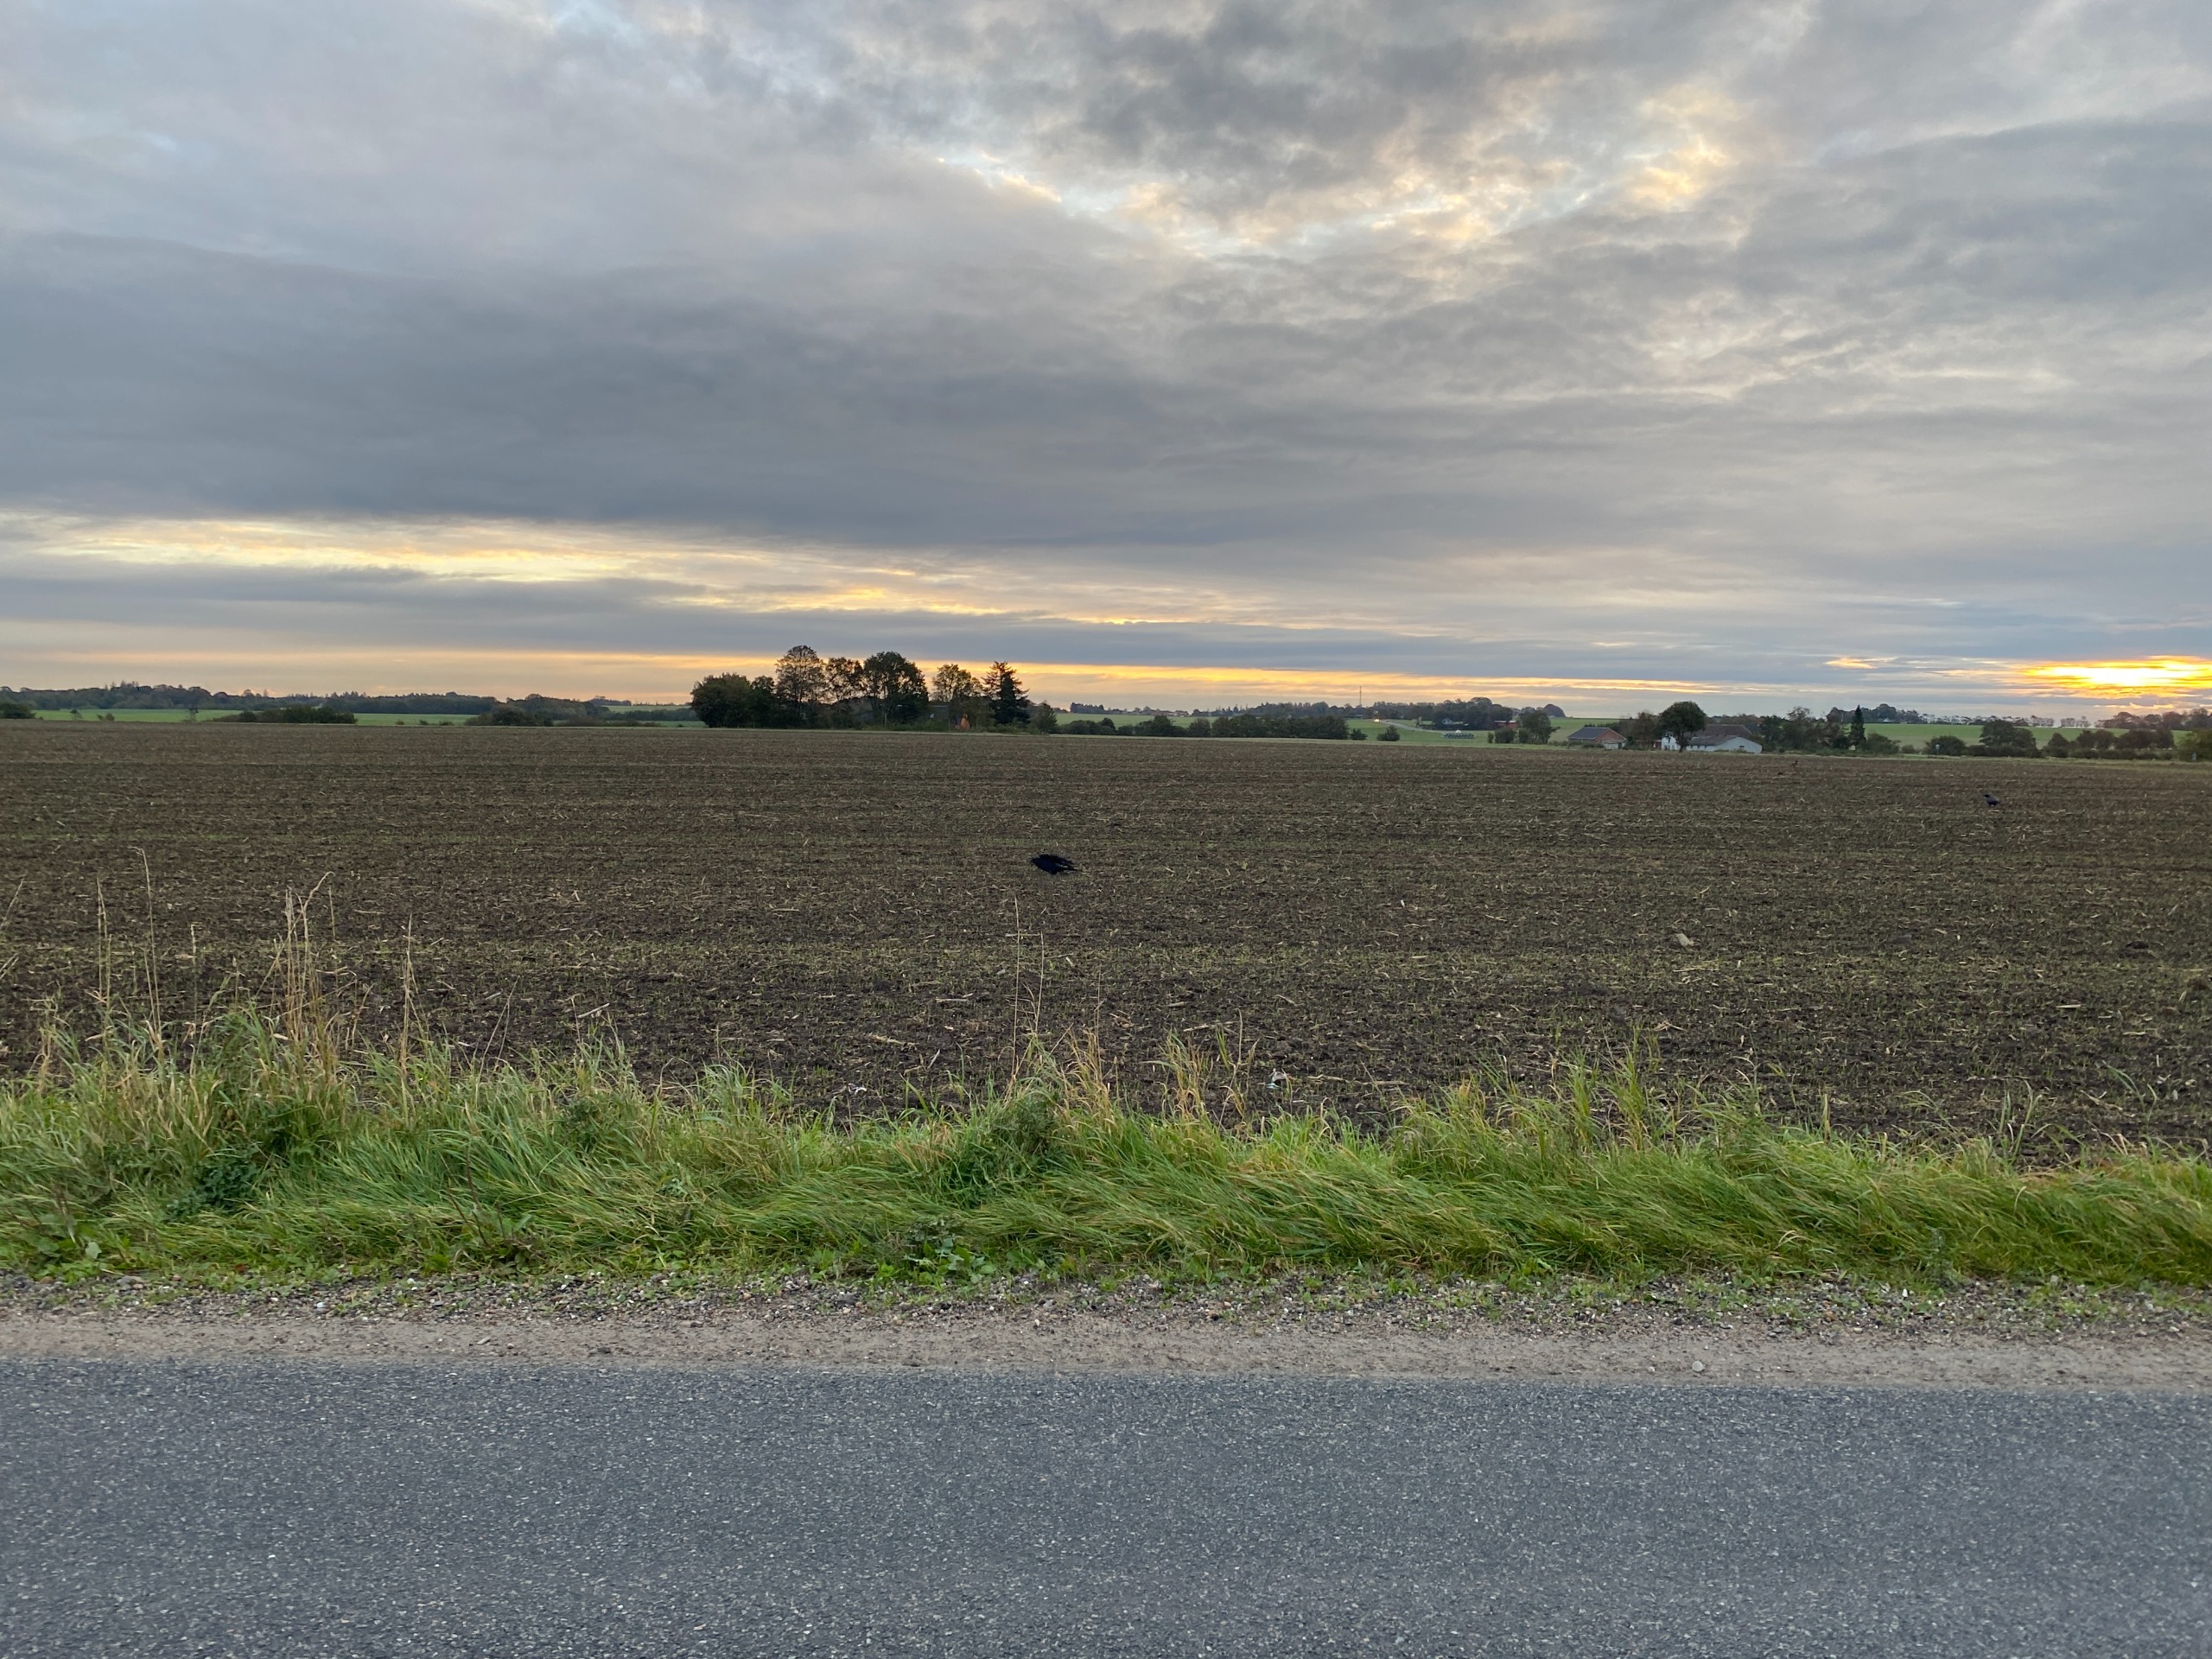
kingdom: Animalia
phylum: Chordata
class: Aves
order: Passeriformes
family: Corvidae
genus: Corvus
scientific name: Corvus corax
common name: Ravn
